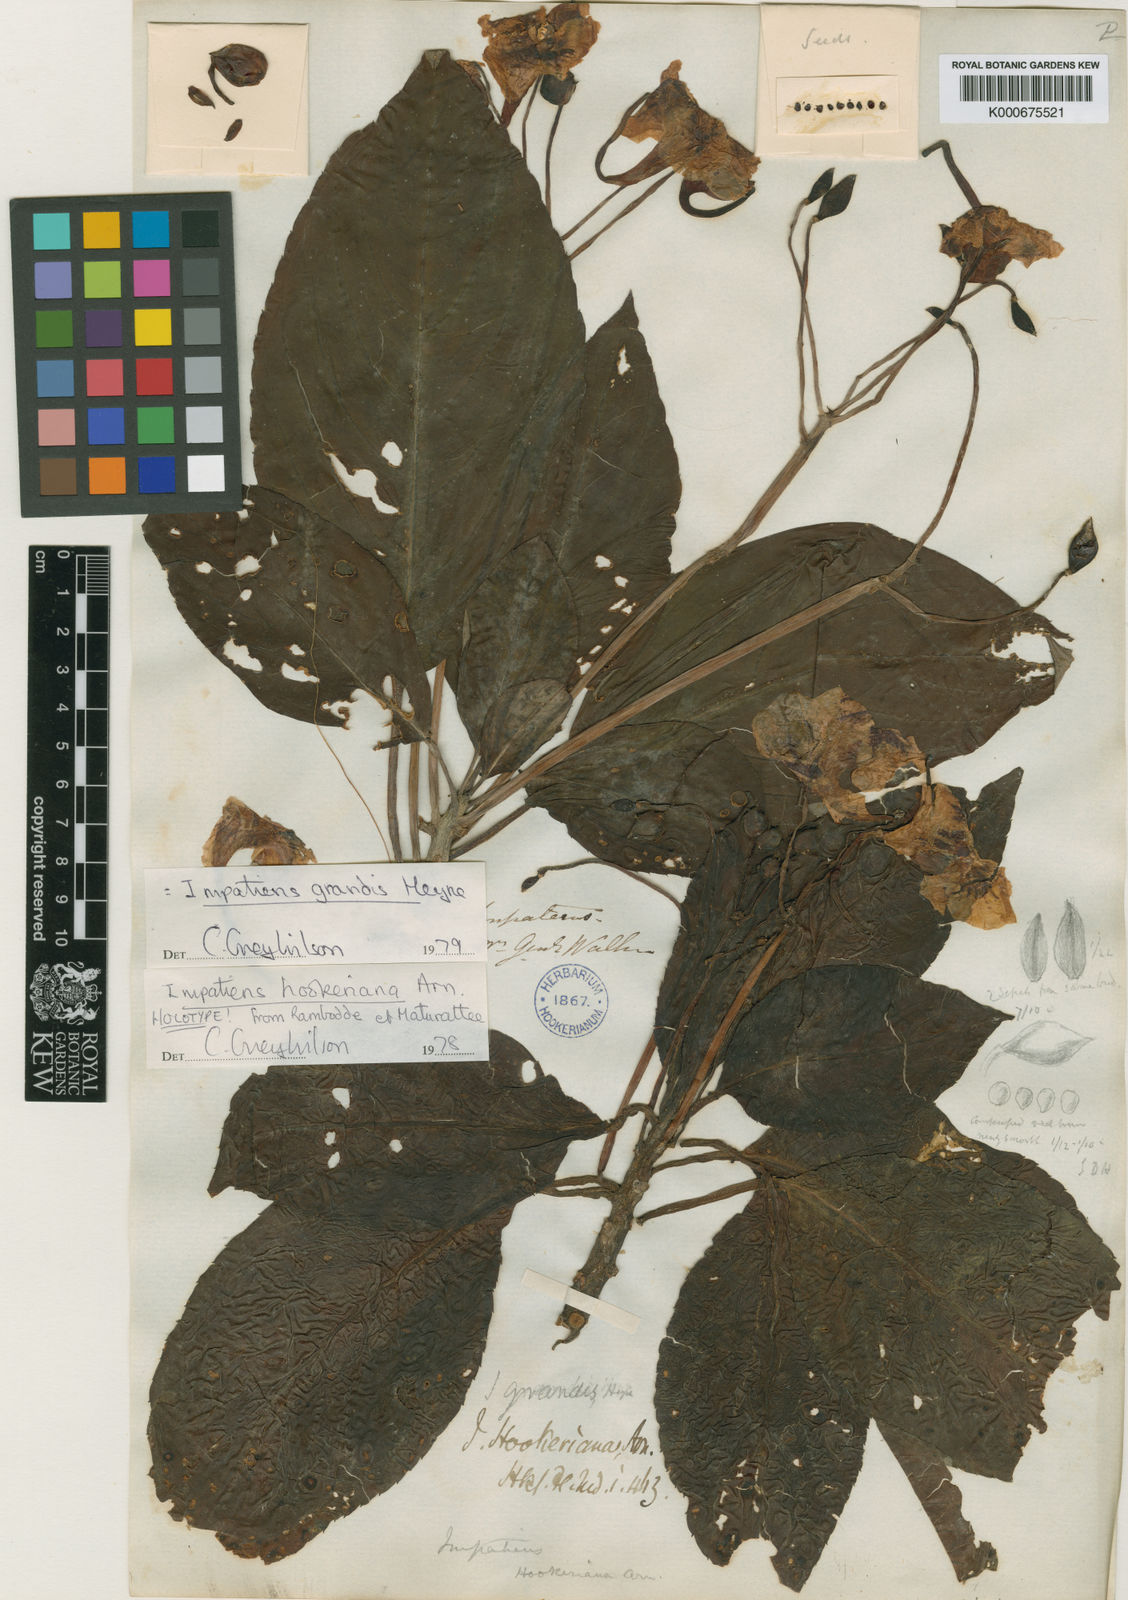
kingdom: Plantae
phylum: Tracheophyta
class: Magnoliopsida
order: Ericales
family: Balsaminaceae
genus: Impatiens
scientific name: Impatiens grandis
